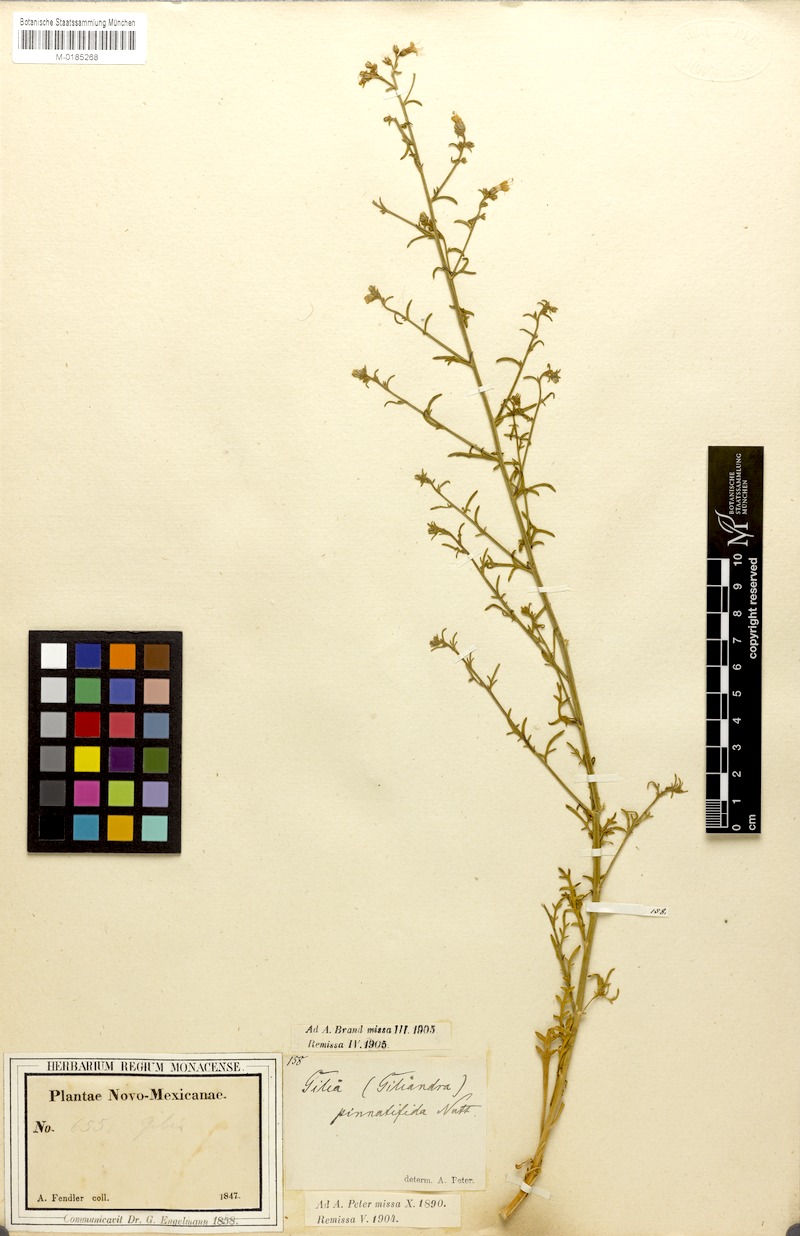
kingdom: Plantae
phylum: Tracheophyta
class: Magnoliopsida
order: Ericales
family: Polemoniaceae
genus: Aliciella
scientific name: Aliciella pinnatifida
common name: Sticky gilia
